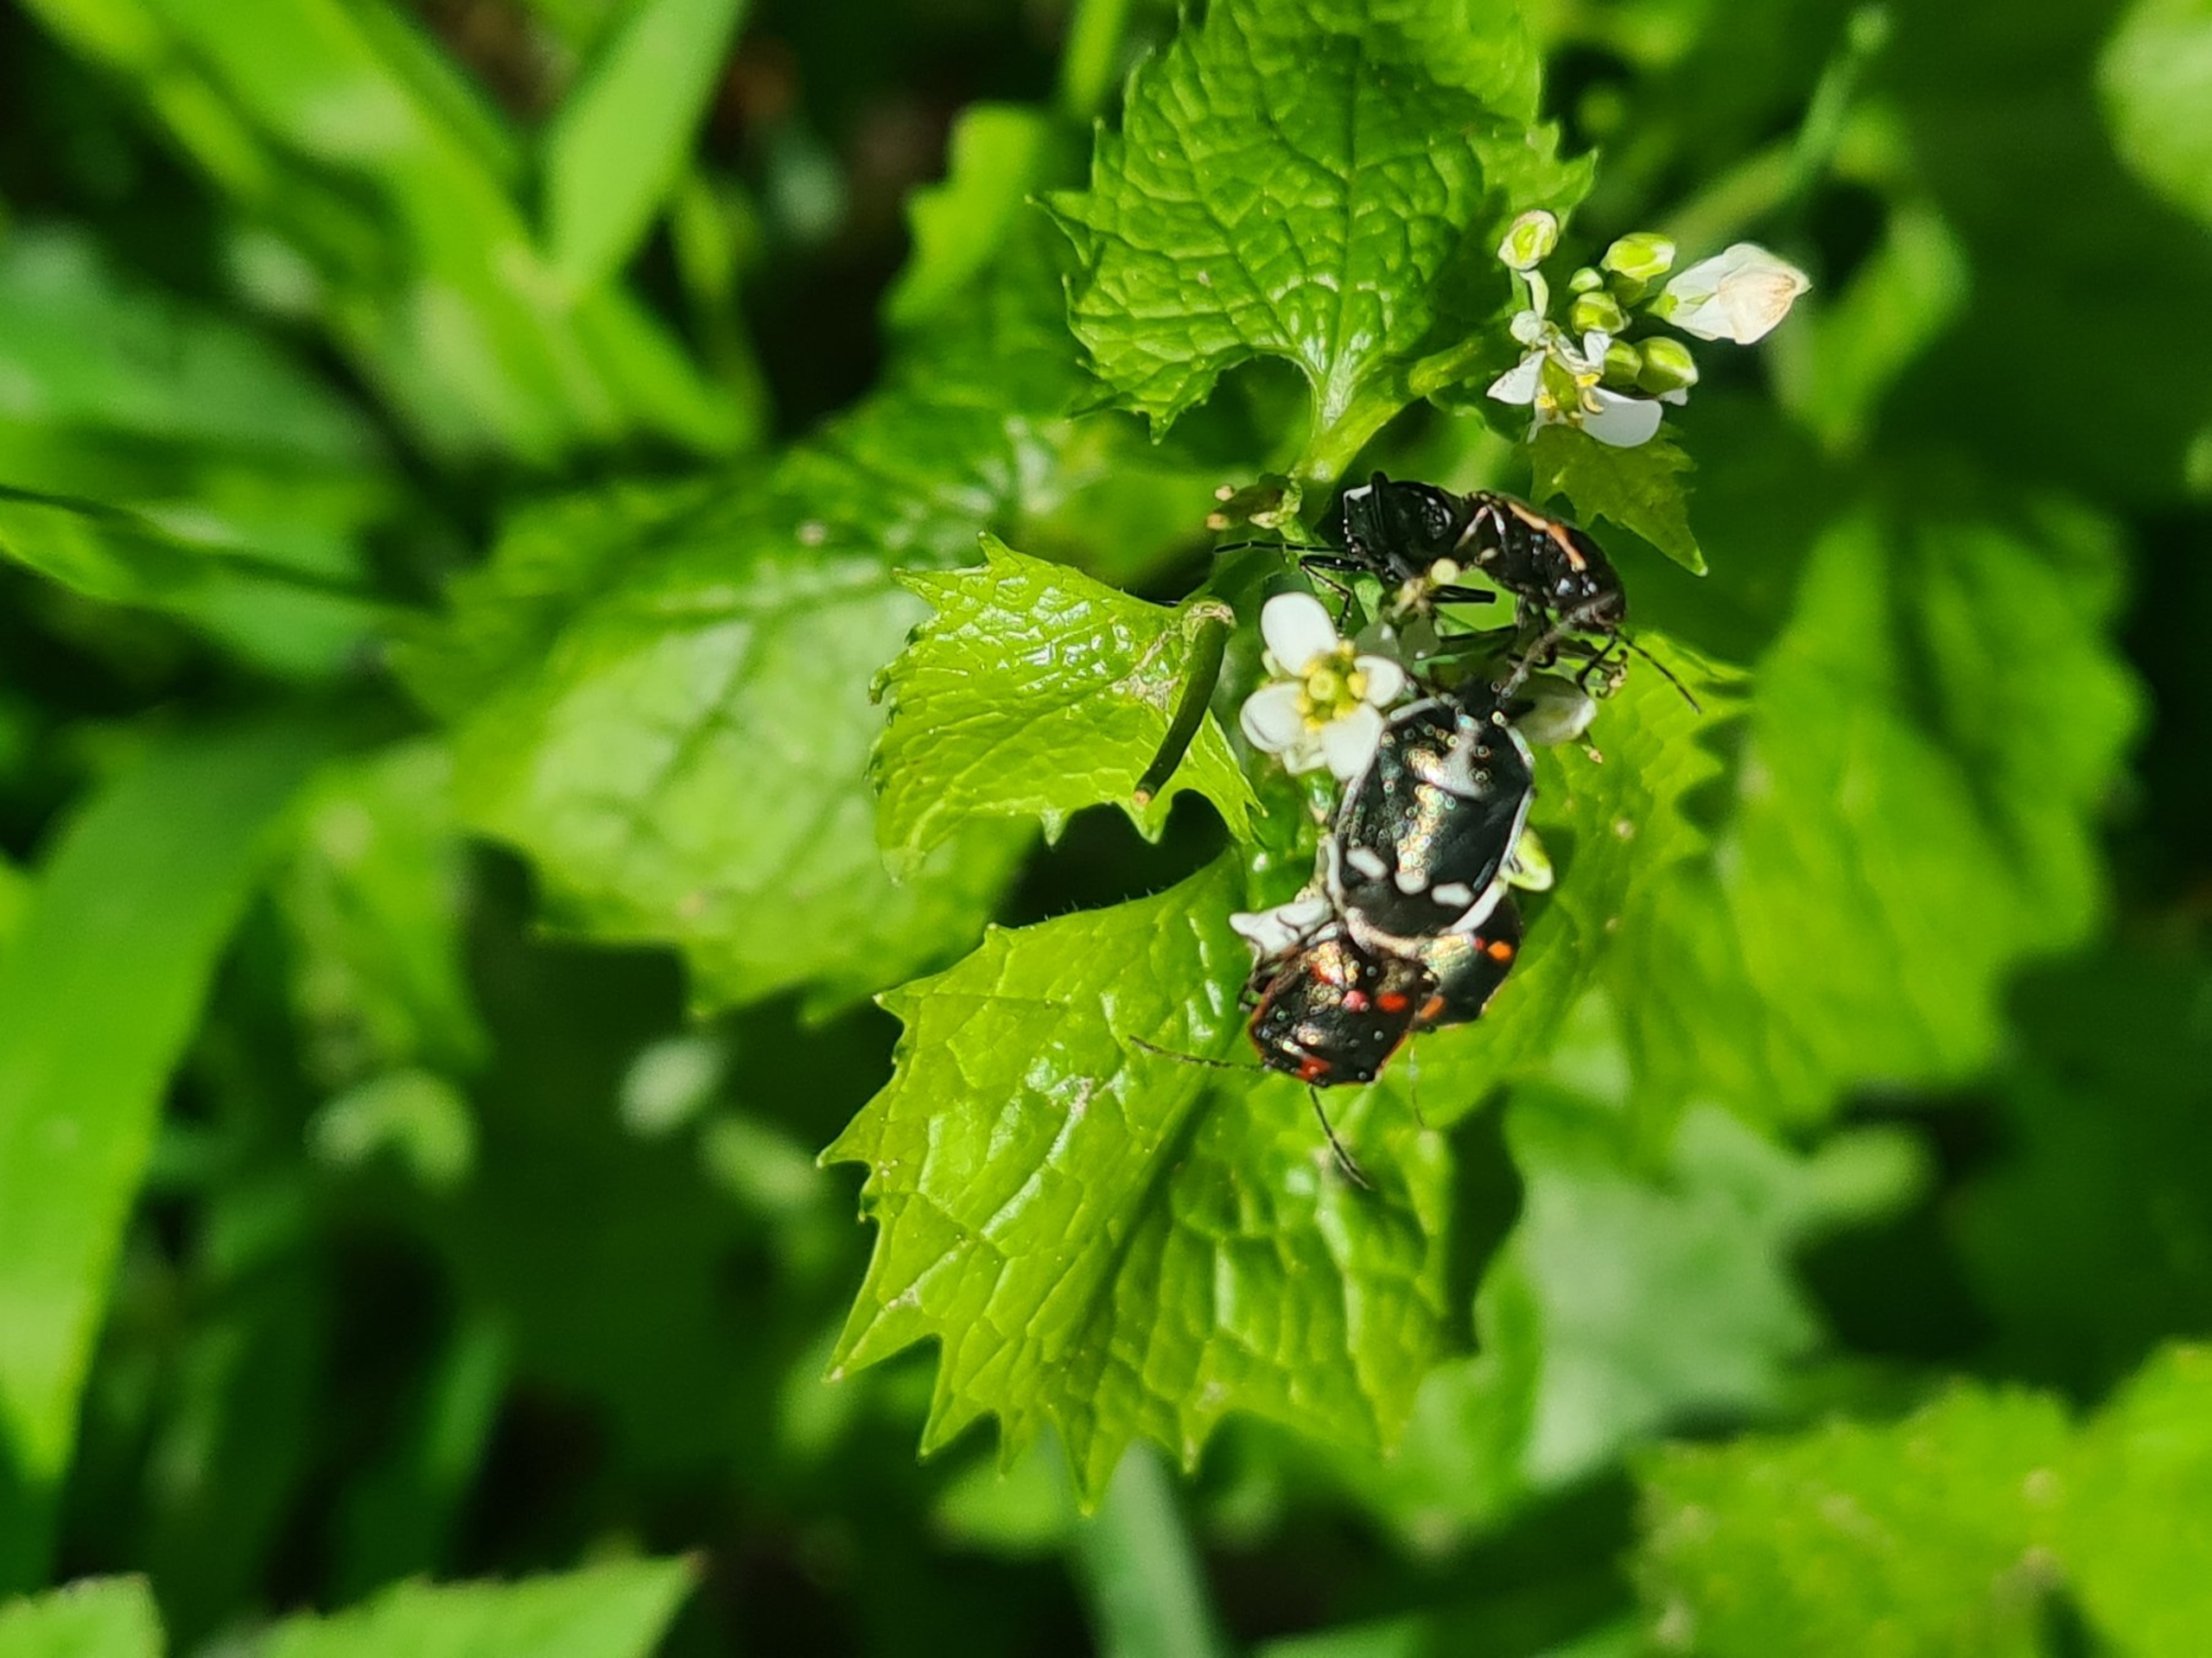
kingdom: Animalia
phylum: Arthropoda
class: Insecta
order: Hemiptera
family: Pentatomidae
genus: Eurydema
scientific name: Eurydema oleracea
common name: Almindelig kåltæge
